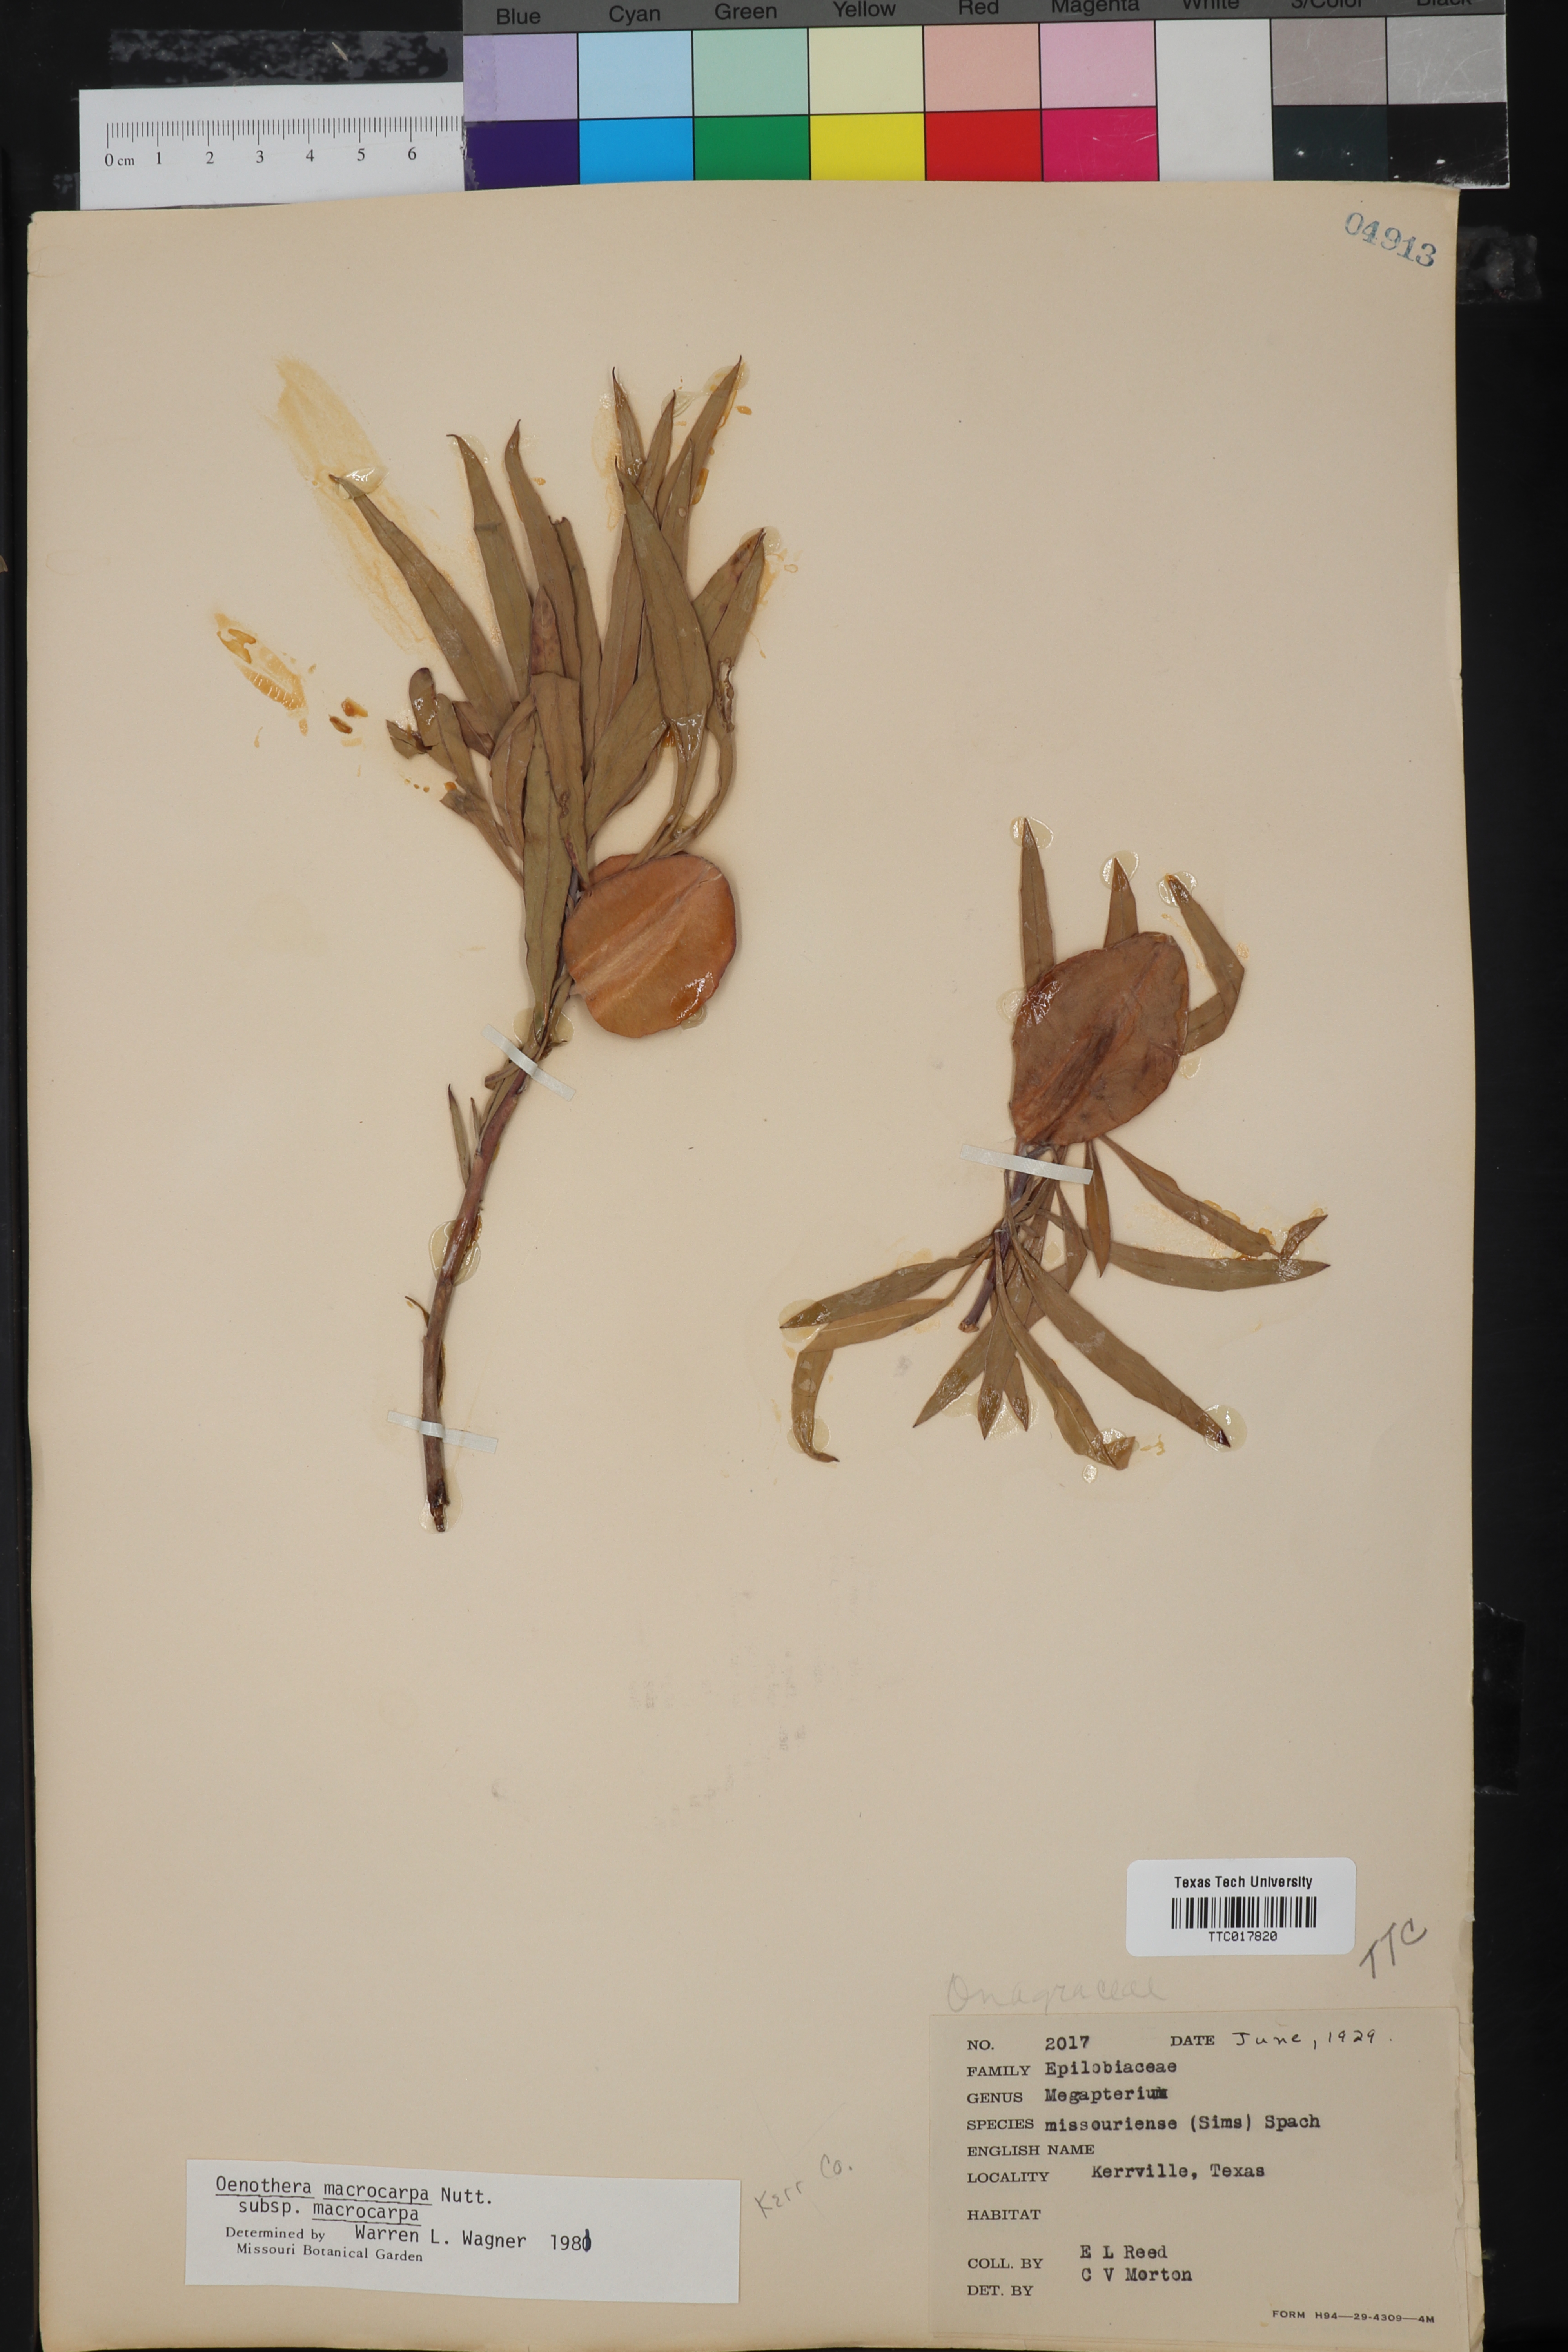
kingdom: Plantae
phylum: Tracheophyta
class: Magnoliopsida
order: Myrtales
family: Onagraceae
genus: Oenothera
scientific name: Oenothera macrocarpa
